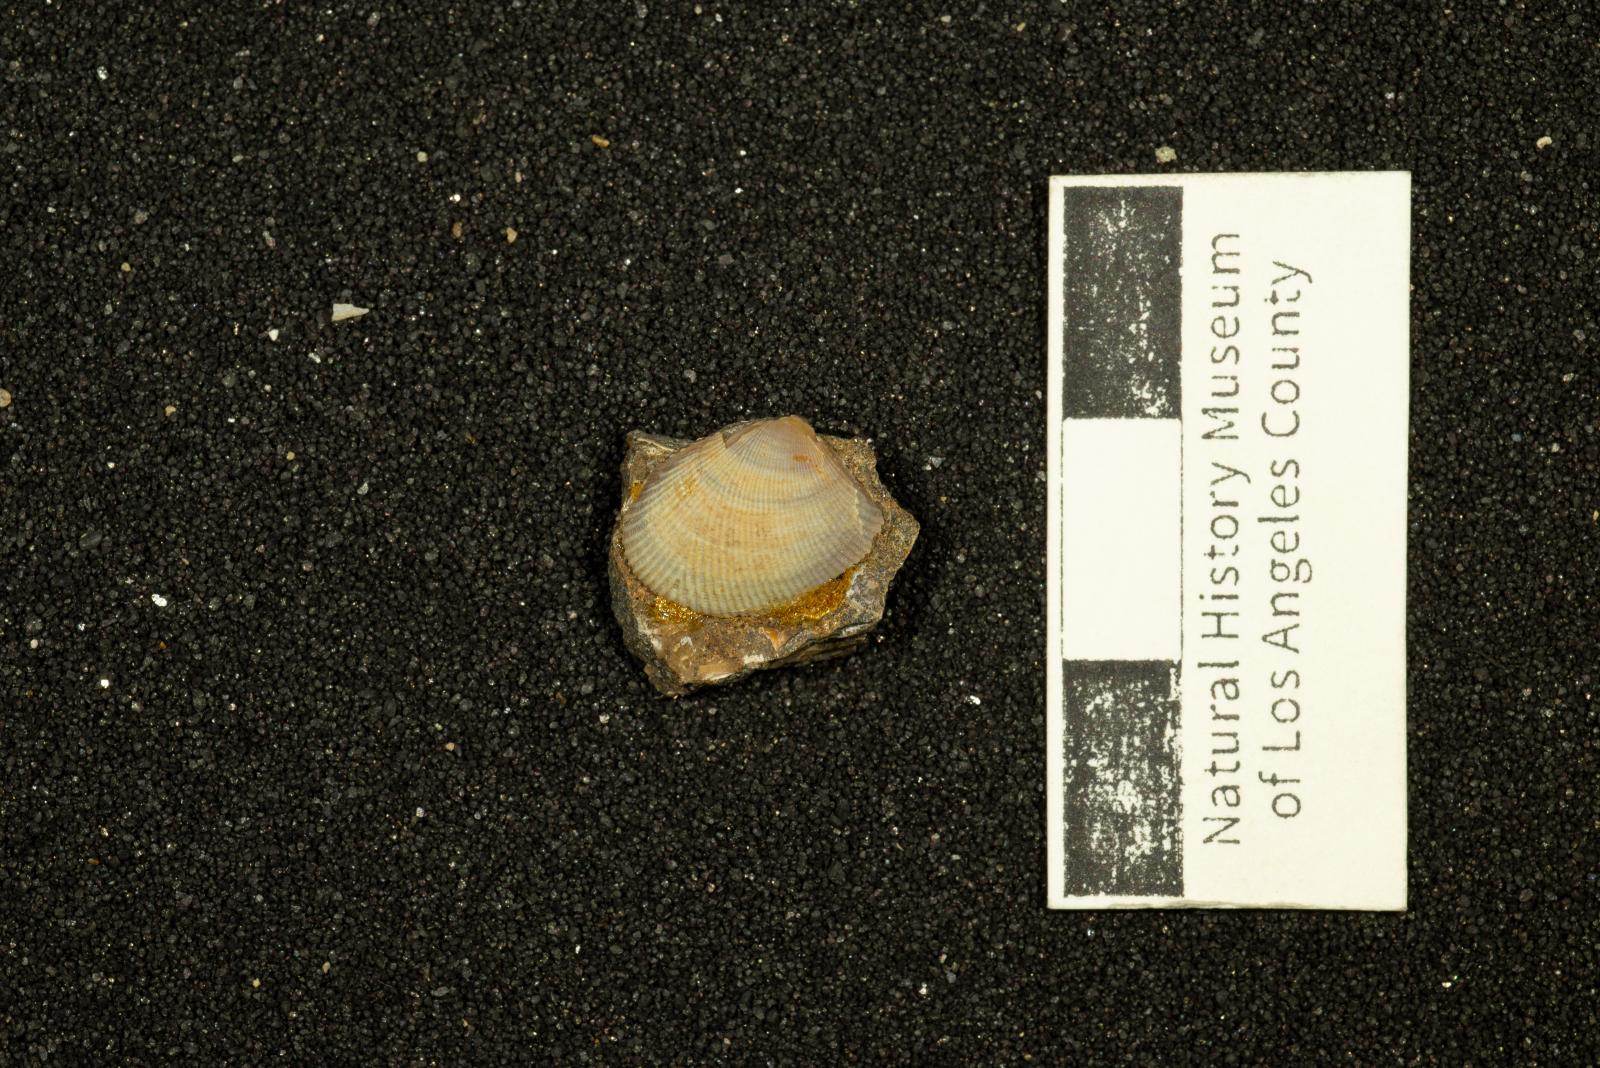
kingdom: Animalia
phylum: Mollusca
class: Bivalvia
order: Nuculida
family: Nuculidae
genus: Acila
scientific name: Acila demessa
